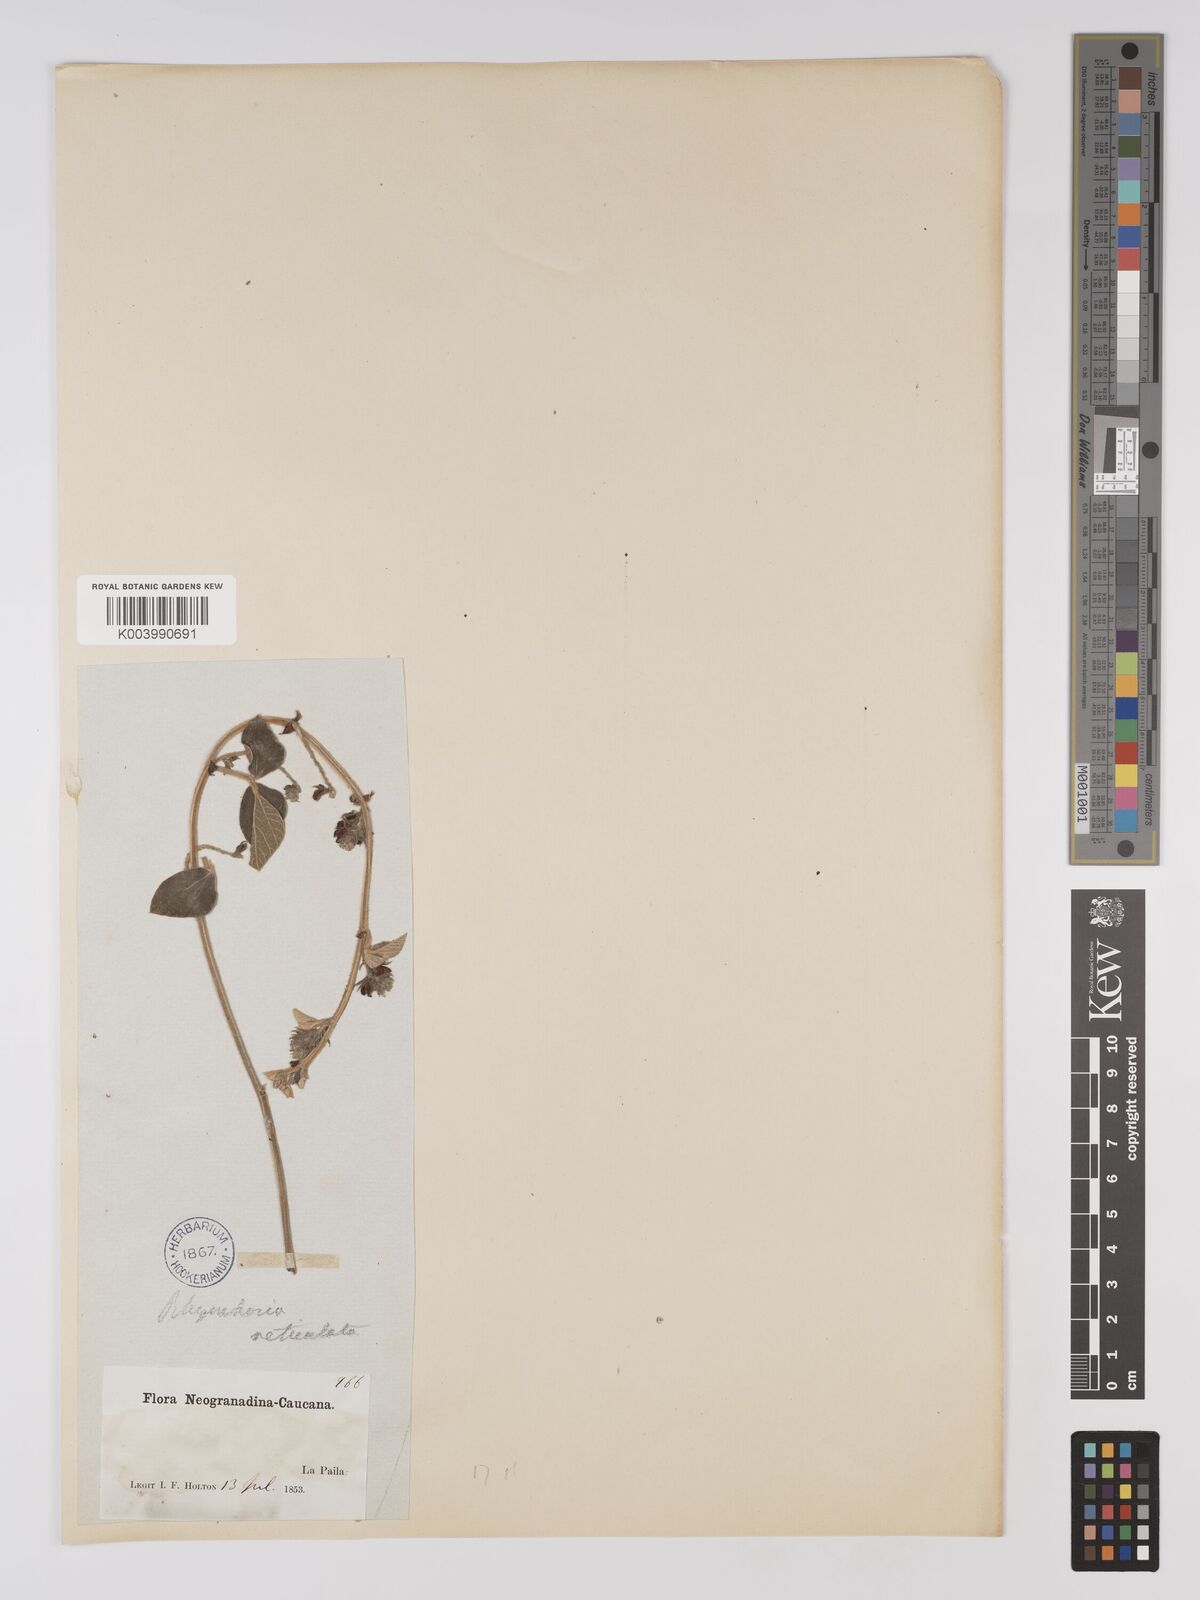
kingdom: Plantae
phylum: Tracheophyta
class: Magnoliopsida
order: Fabales
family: Fabaceae
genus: Rhynchosia
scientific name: Rhynchosia reticulata
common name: Pea withe
